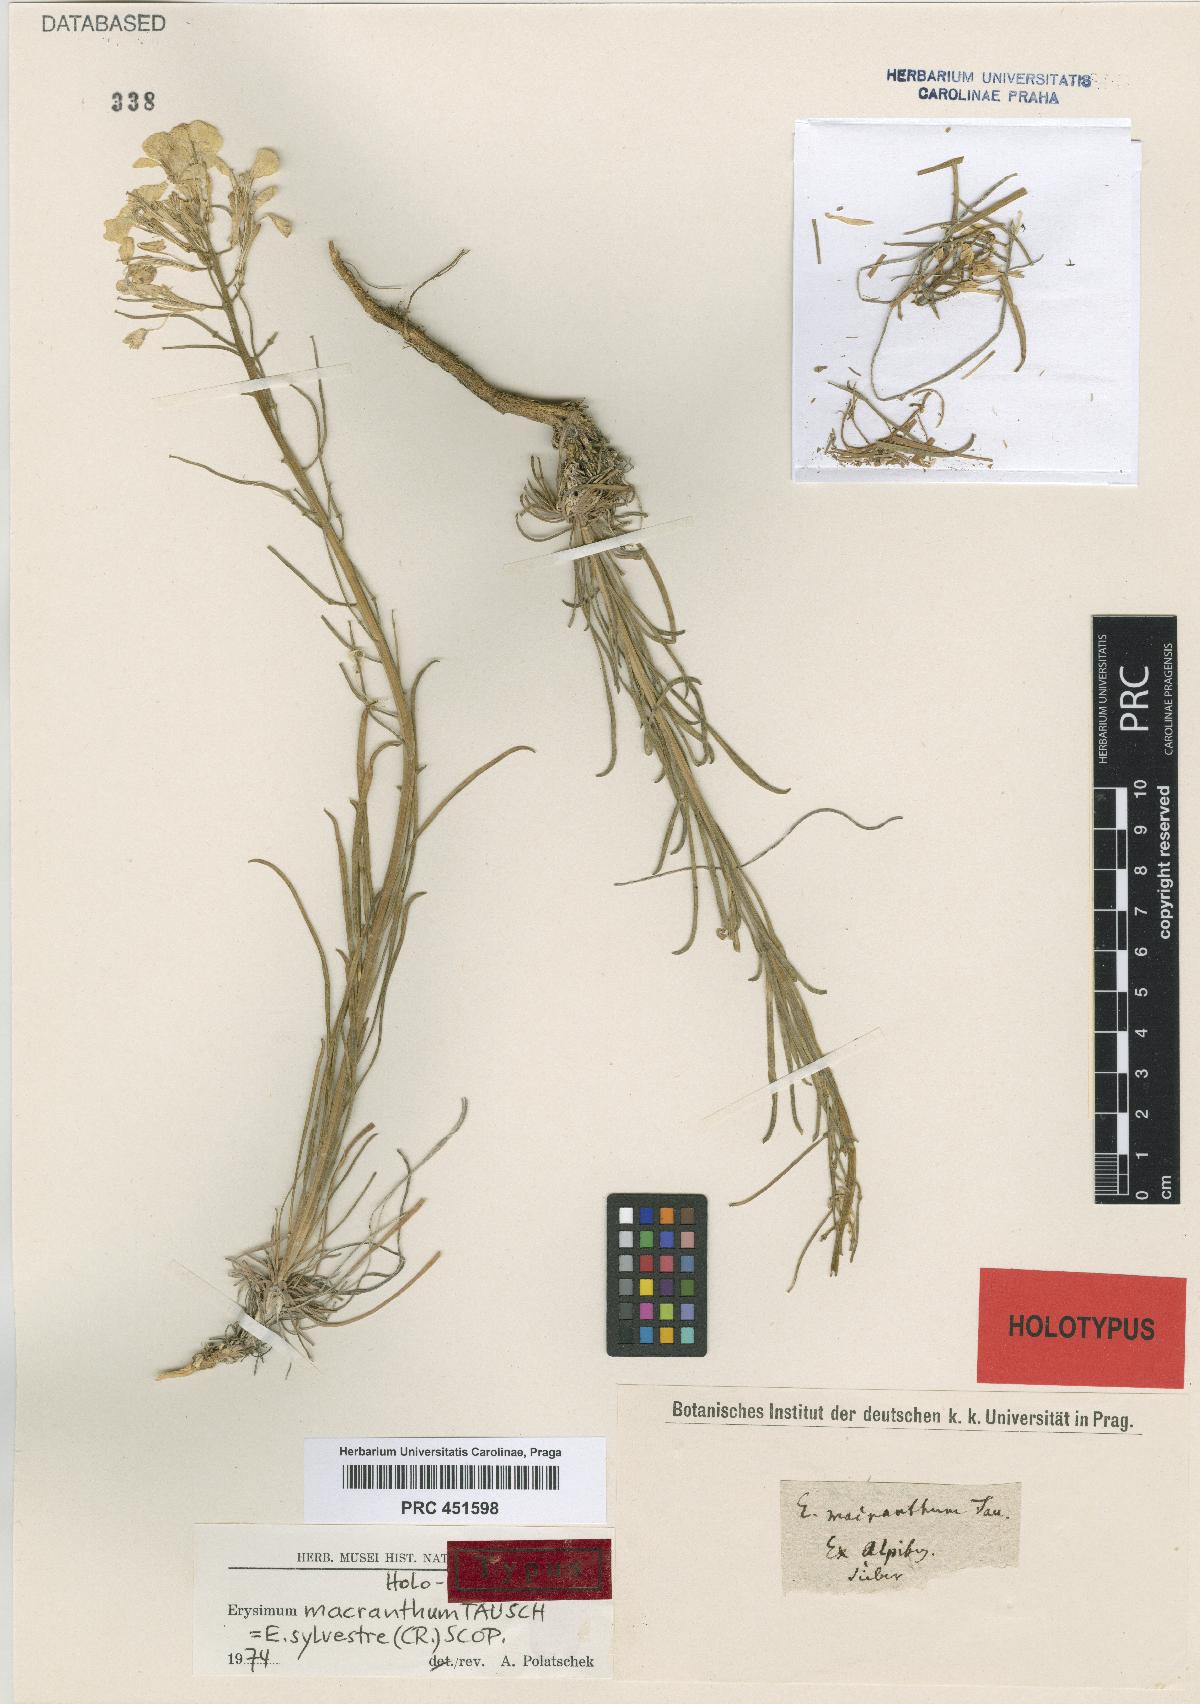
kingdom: Plantae
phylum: Tracheophyta
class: Magnoliopsida
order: Brassicales
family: Brassicaceae
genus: Erysimum
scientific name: Erysimum sylvestre
